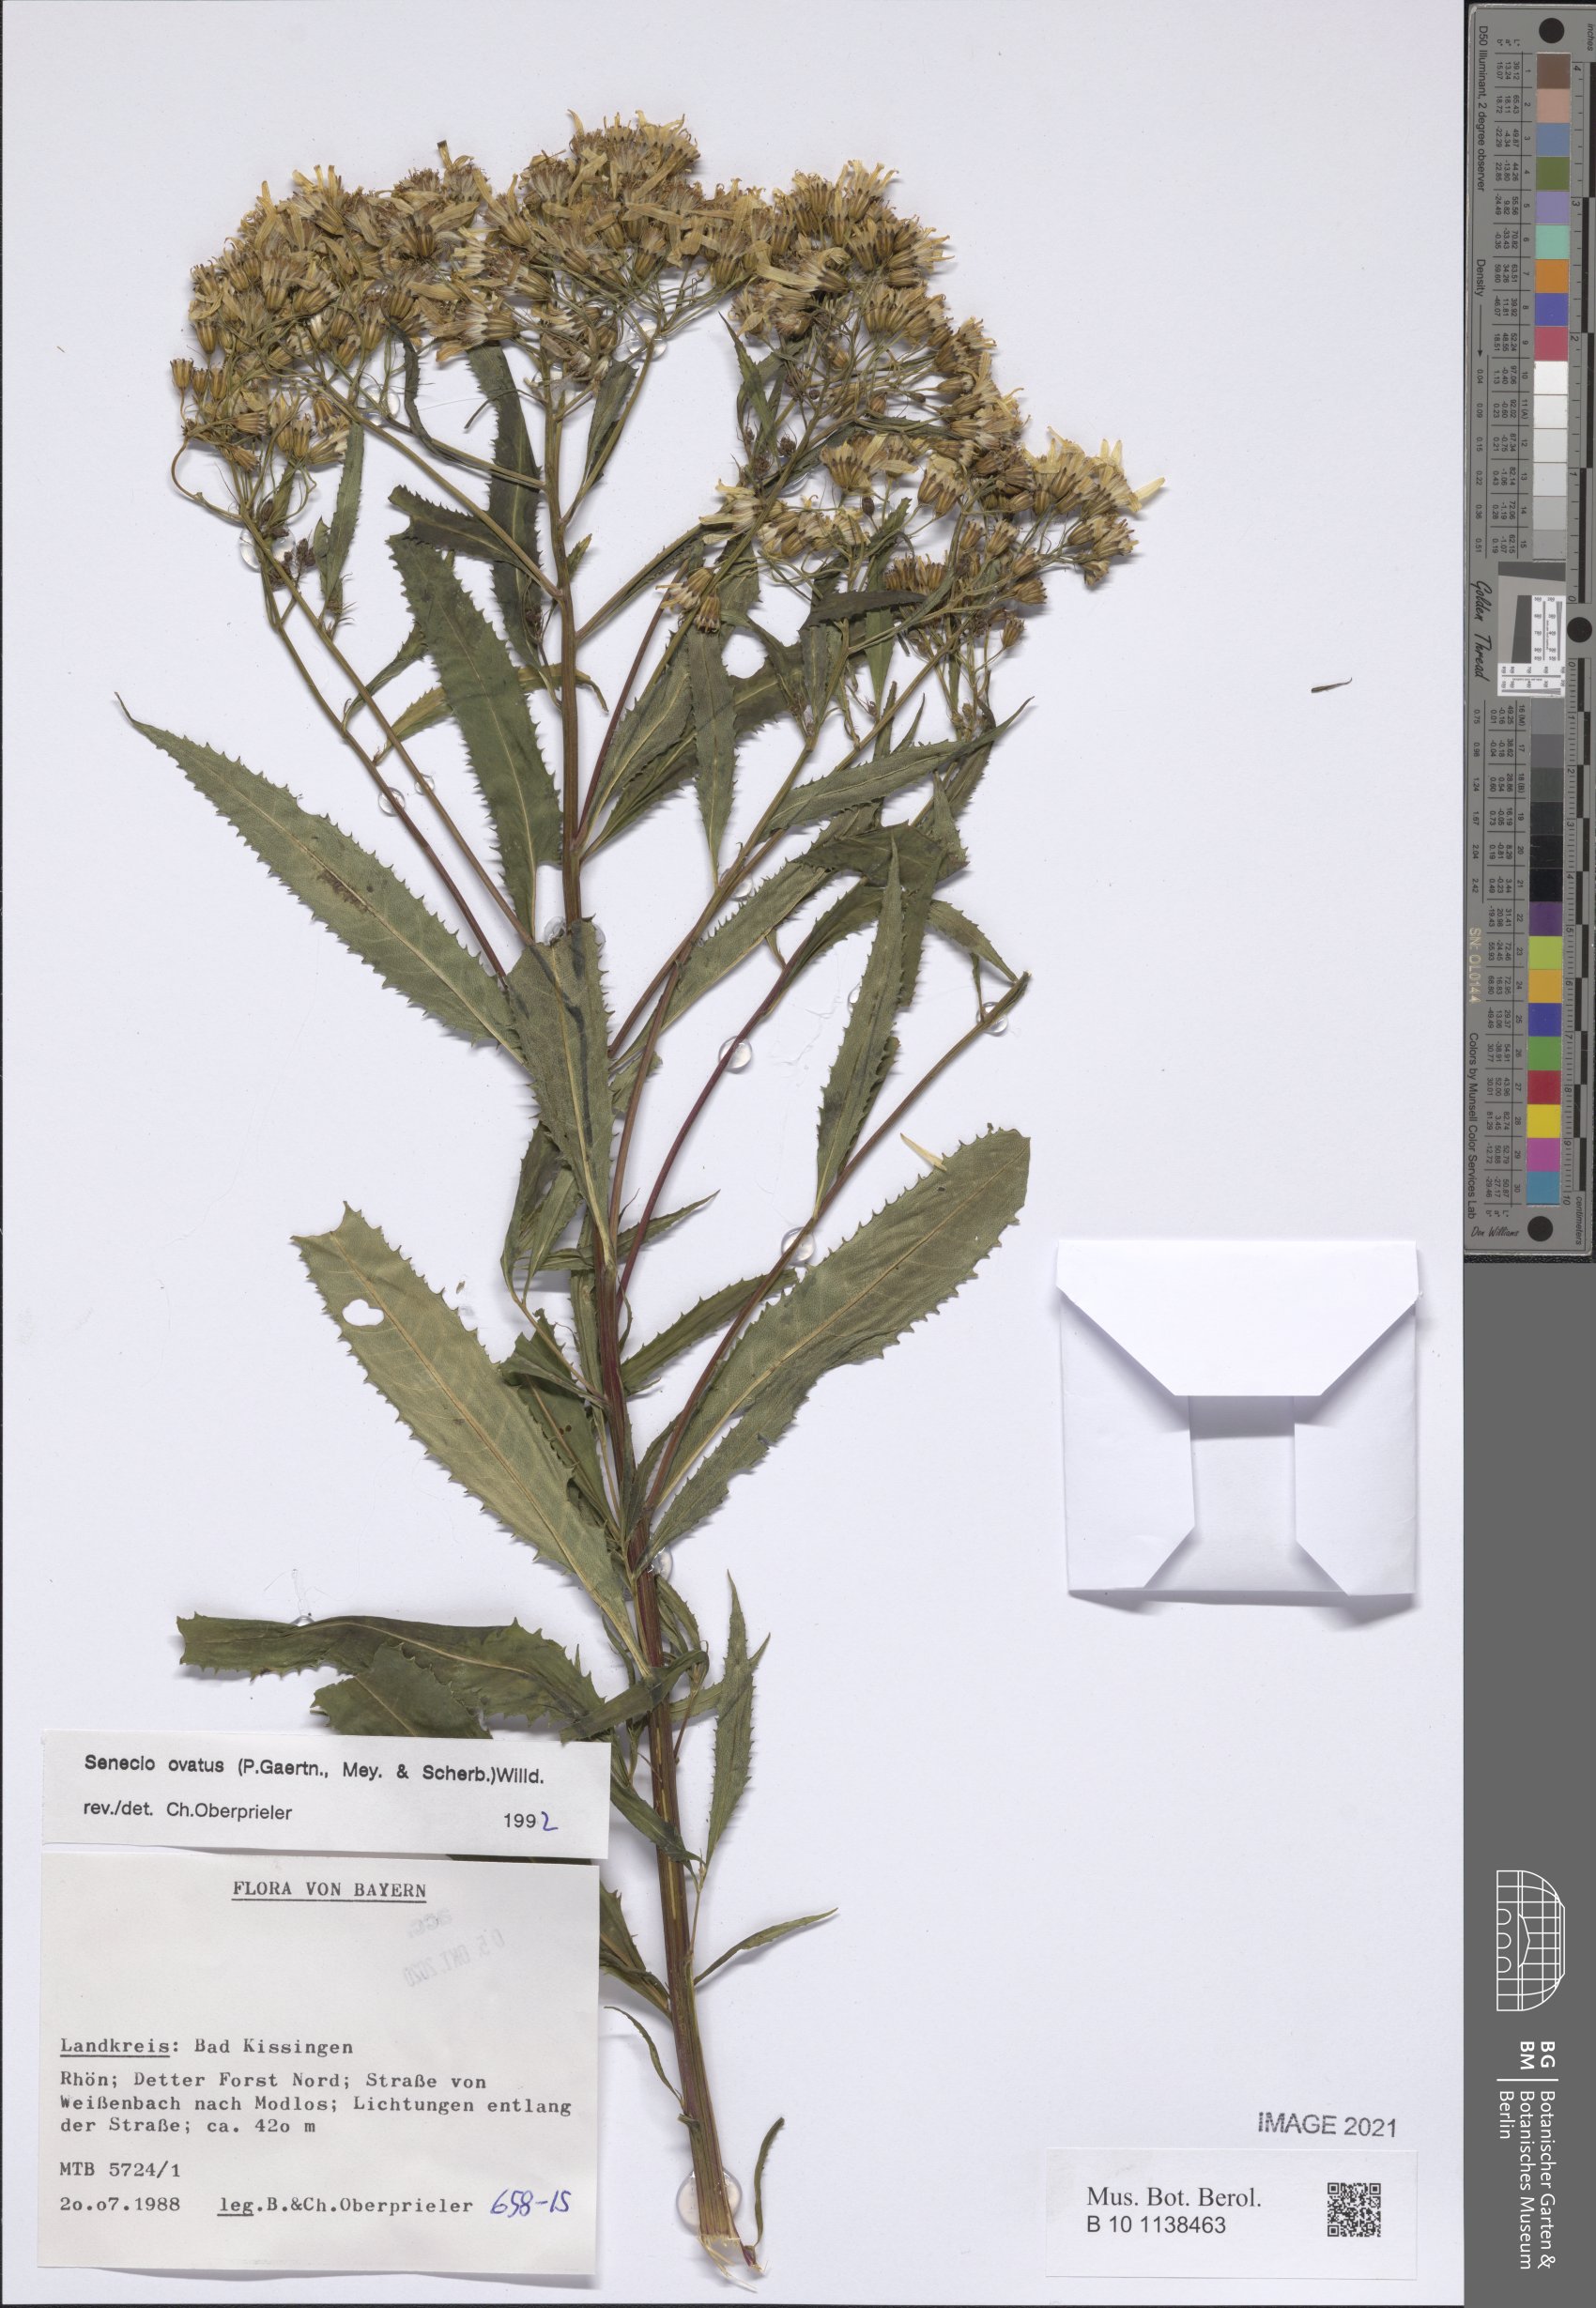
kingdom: Plantae
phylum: Tracheophyta
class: Magnoliopsida
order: Asterales
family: Asteraceae
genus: Senecio
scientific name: Senecio ovatus
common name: Wood ragwort
